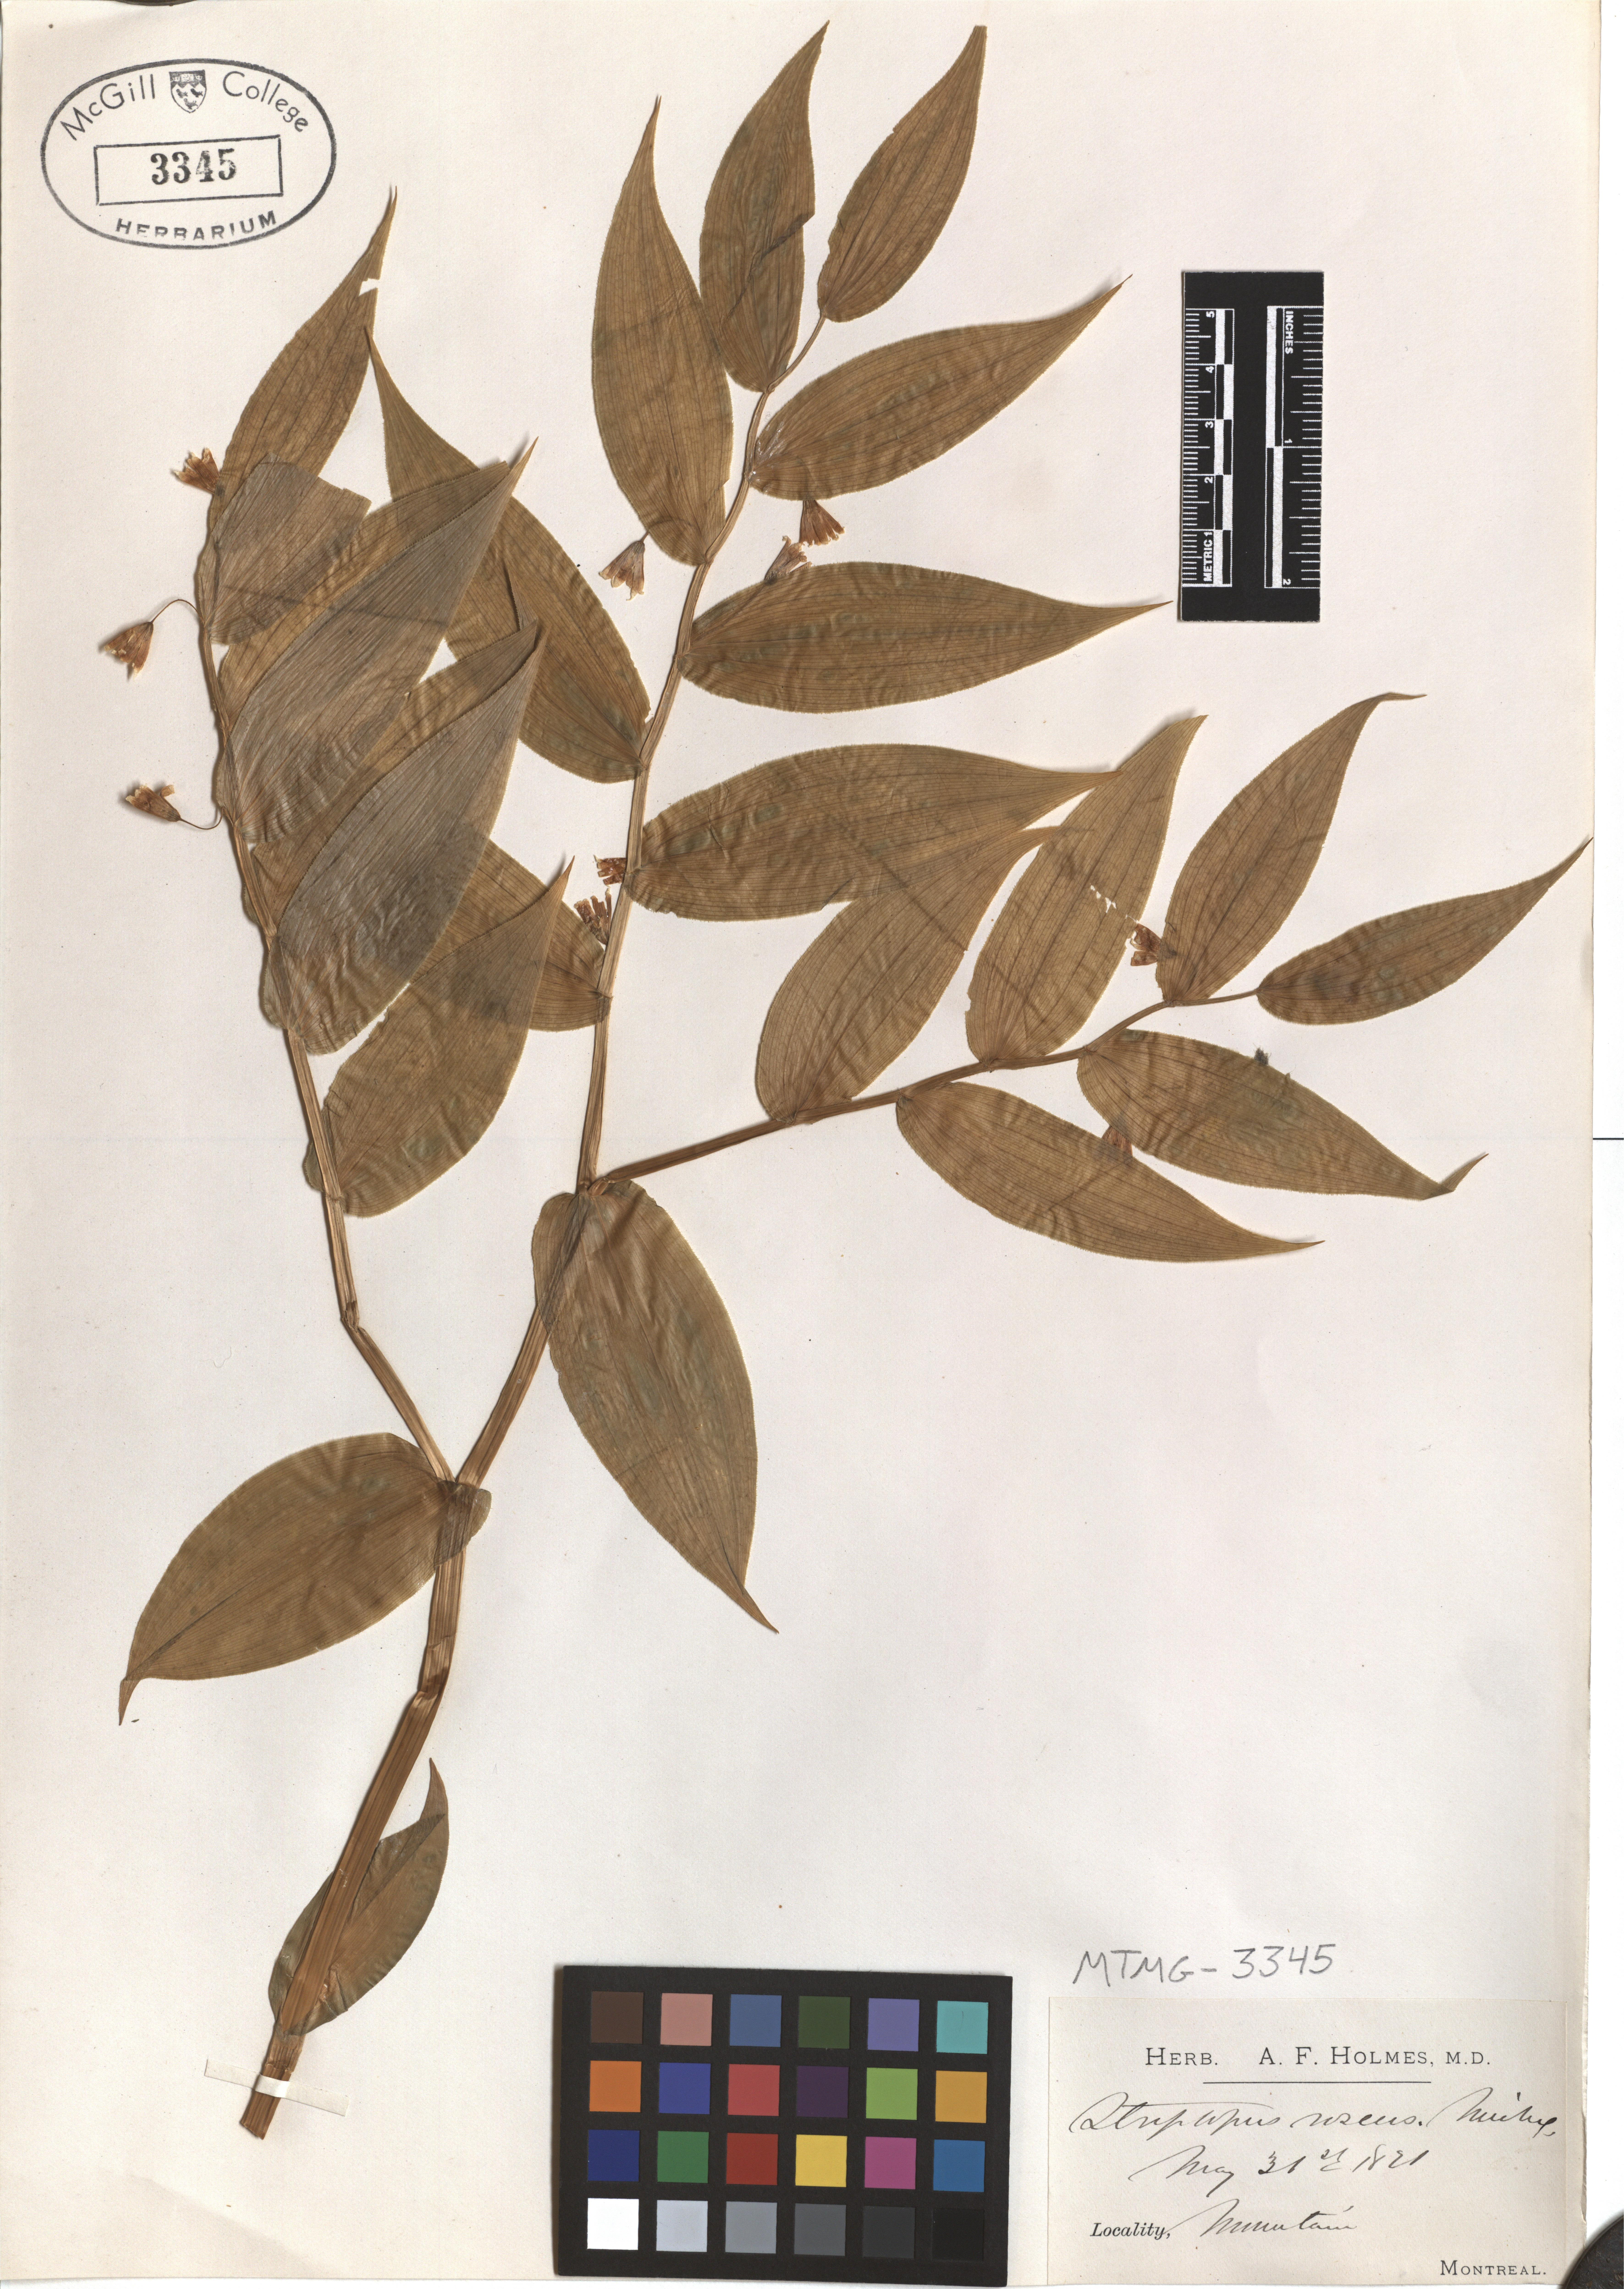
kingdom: Plantae
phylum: Tracheophyta
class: Liliopsida
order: Liliales
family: Liliaceae
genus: Streptopus
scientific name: Streptopus lanceolatus
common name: Rose mandarin
